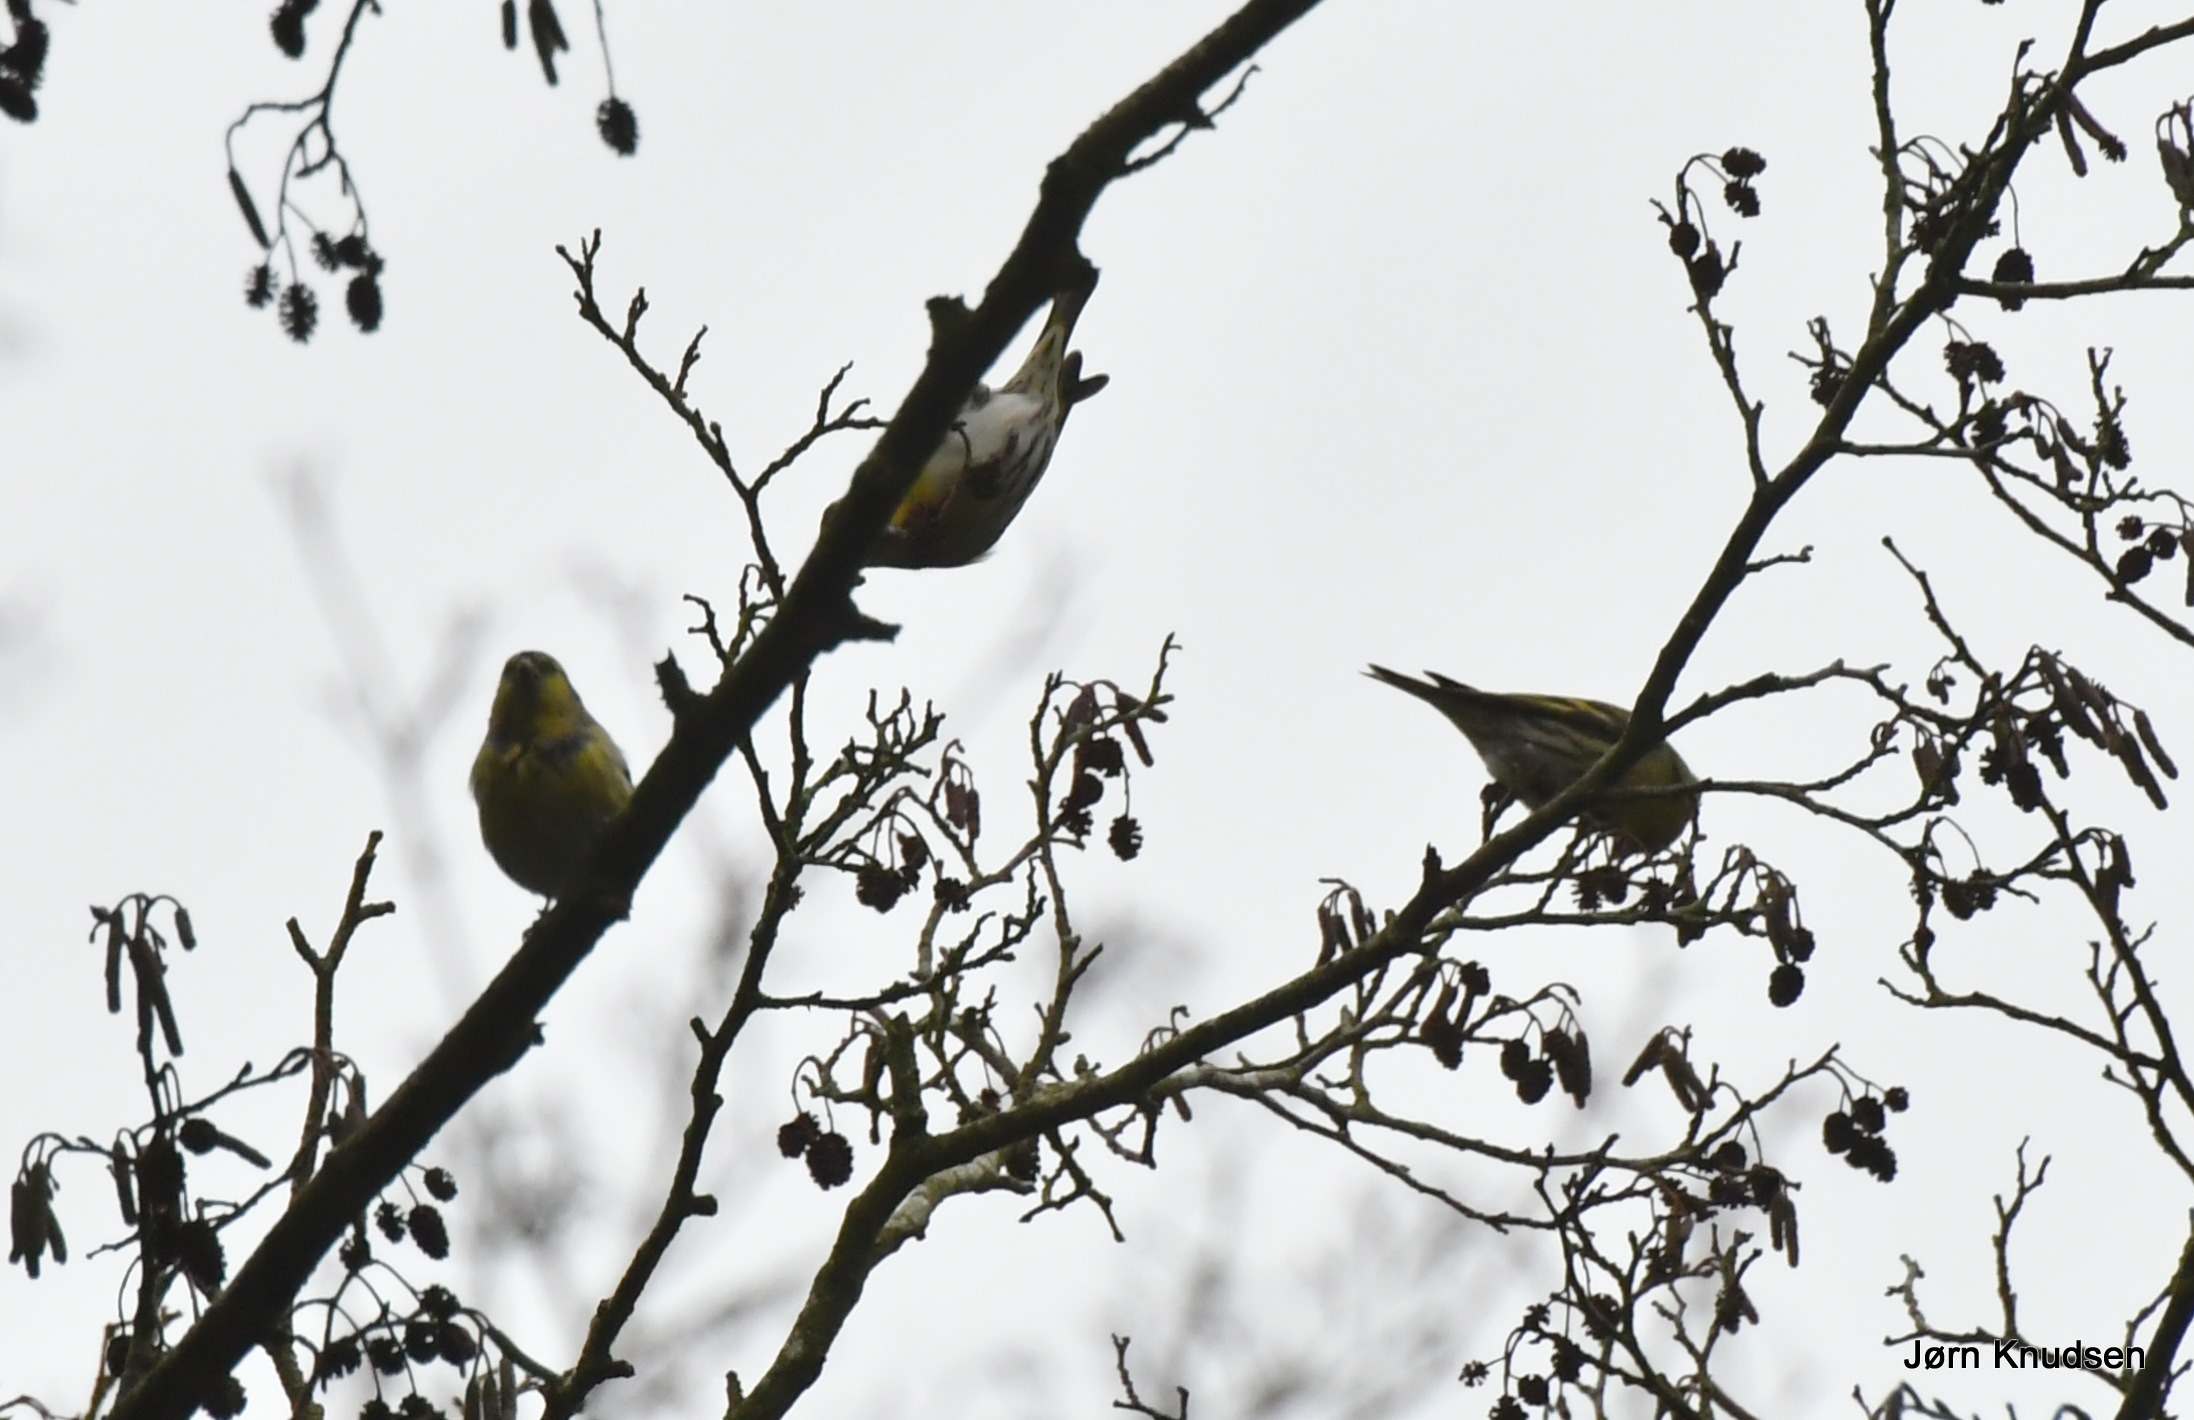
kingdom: Animalia
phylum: Chordata
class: Aves
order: Passeriformes
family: Fringillidae
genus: Spinus
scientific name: Spinus spinus
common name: Grønsisken
